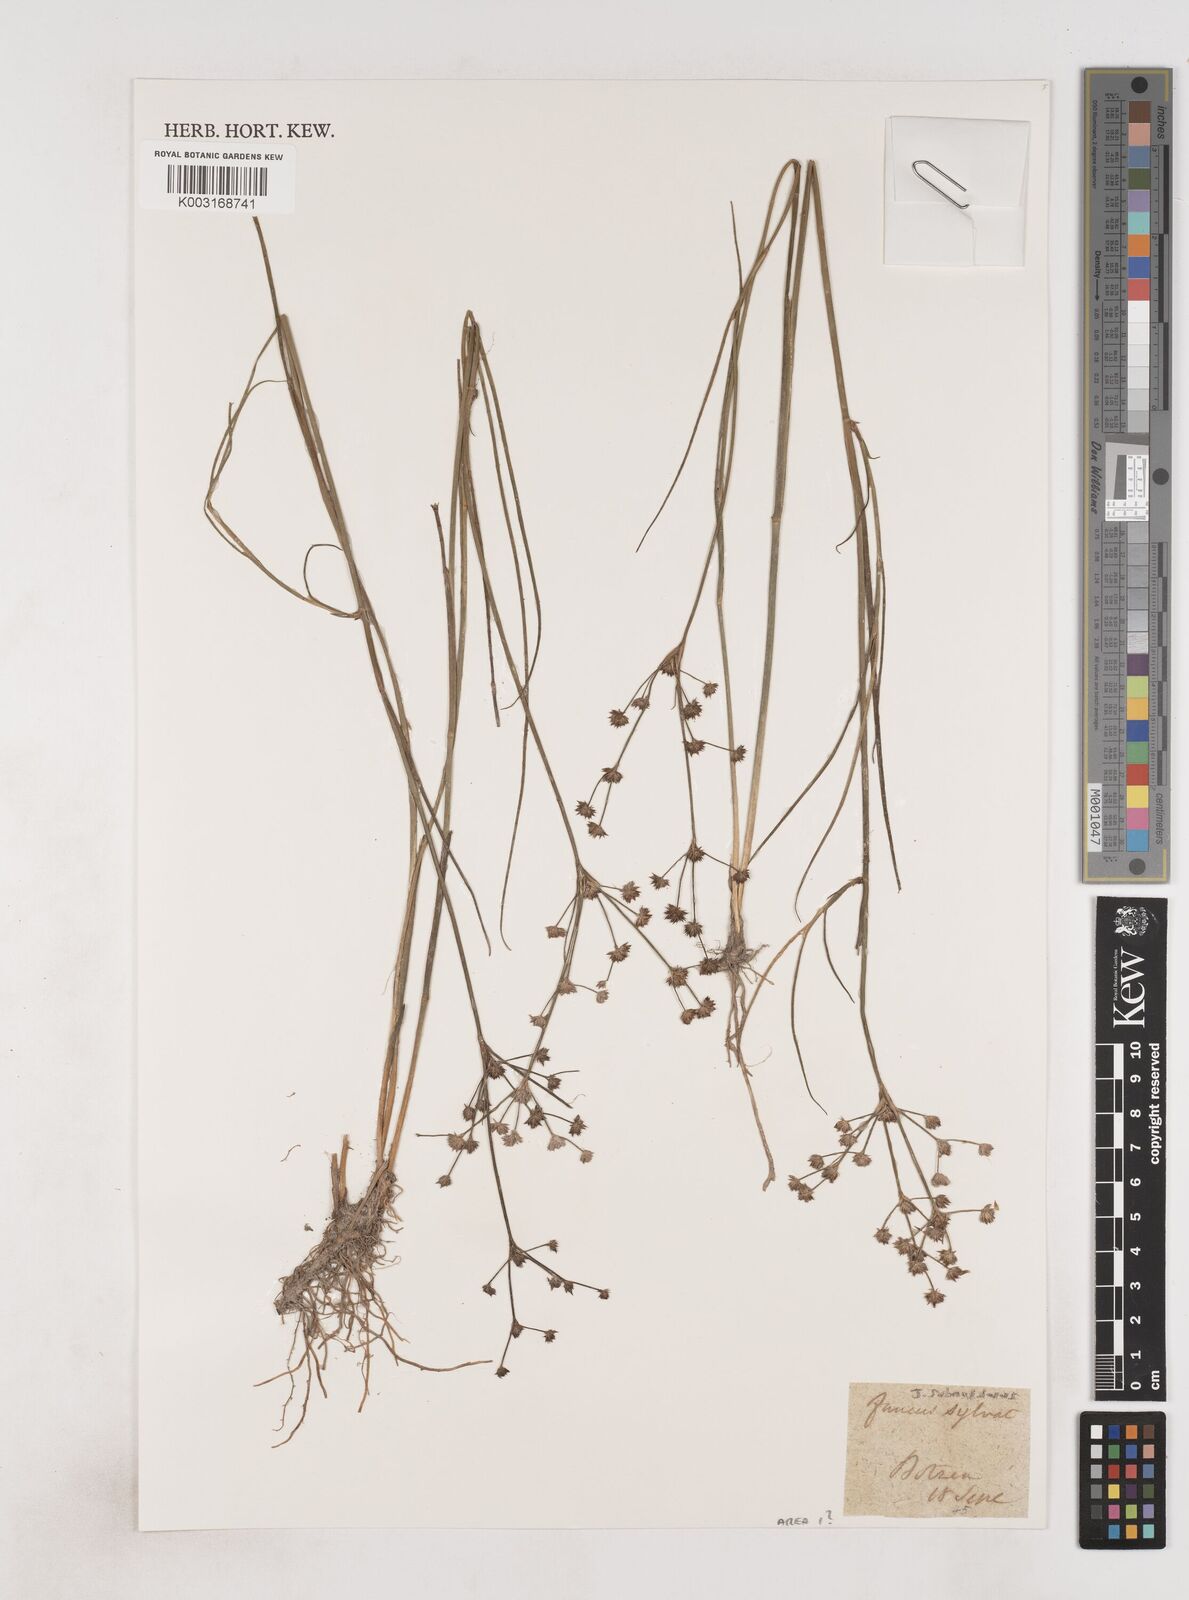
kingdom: Plantae
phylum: Tracheophyta
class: Liliopsida
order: Poales
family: Juncaceae
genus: Juncus
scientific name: Juncus subnodulosus
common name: Blunt-flowered rush
